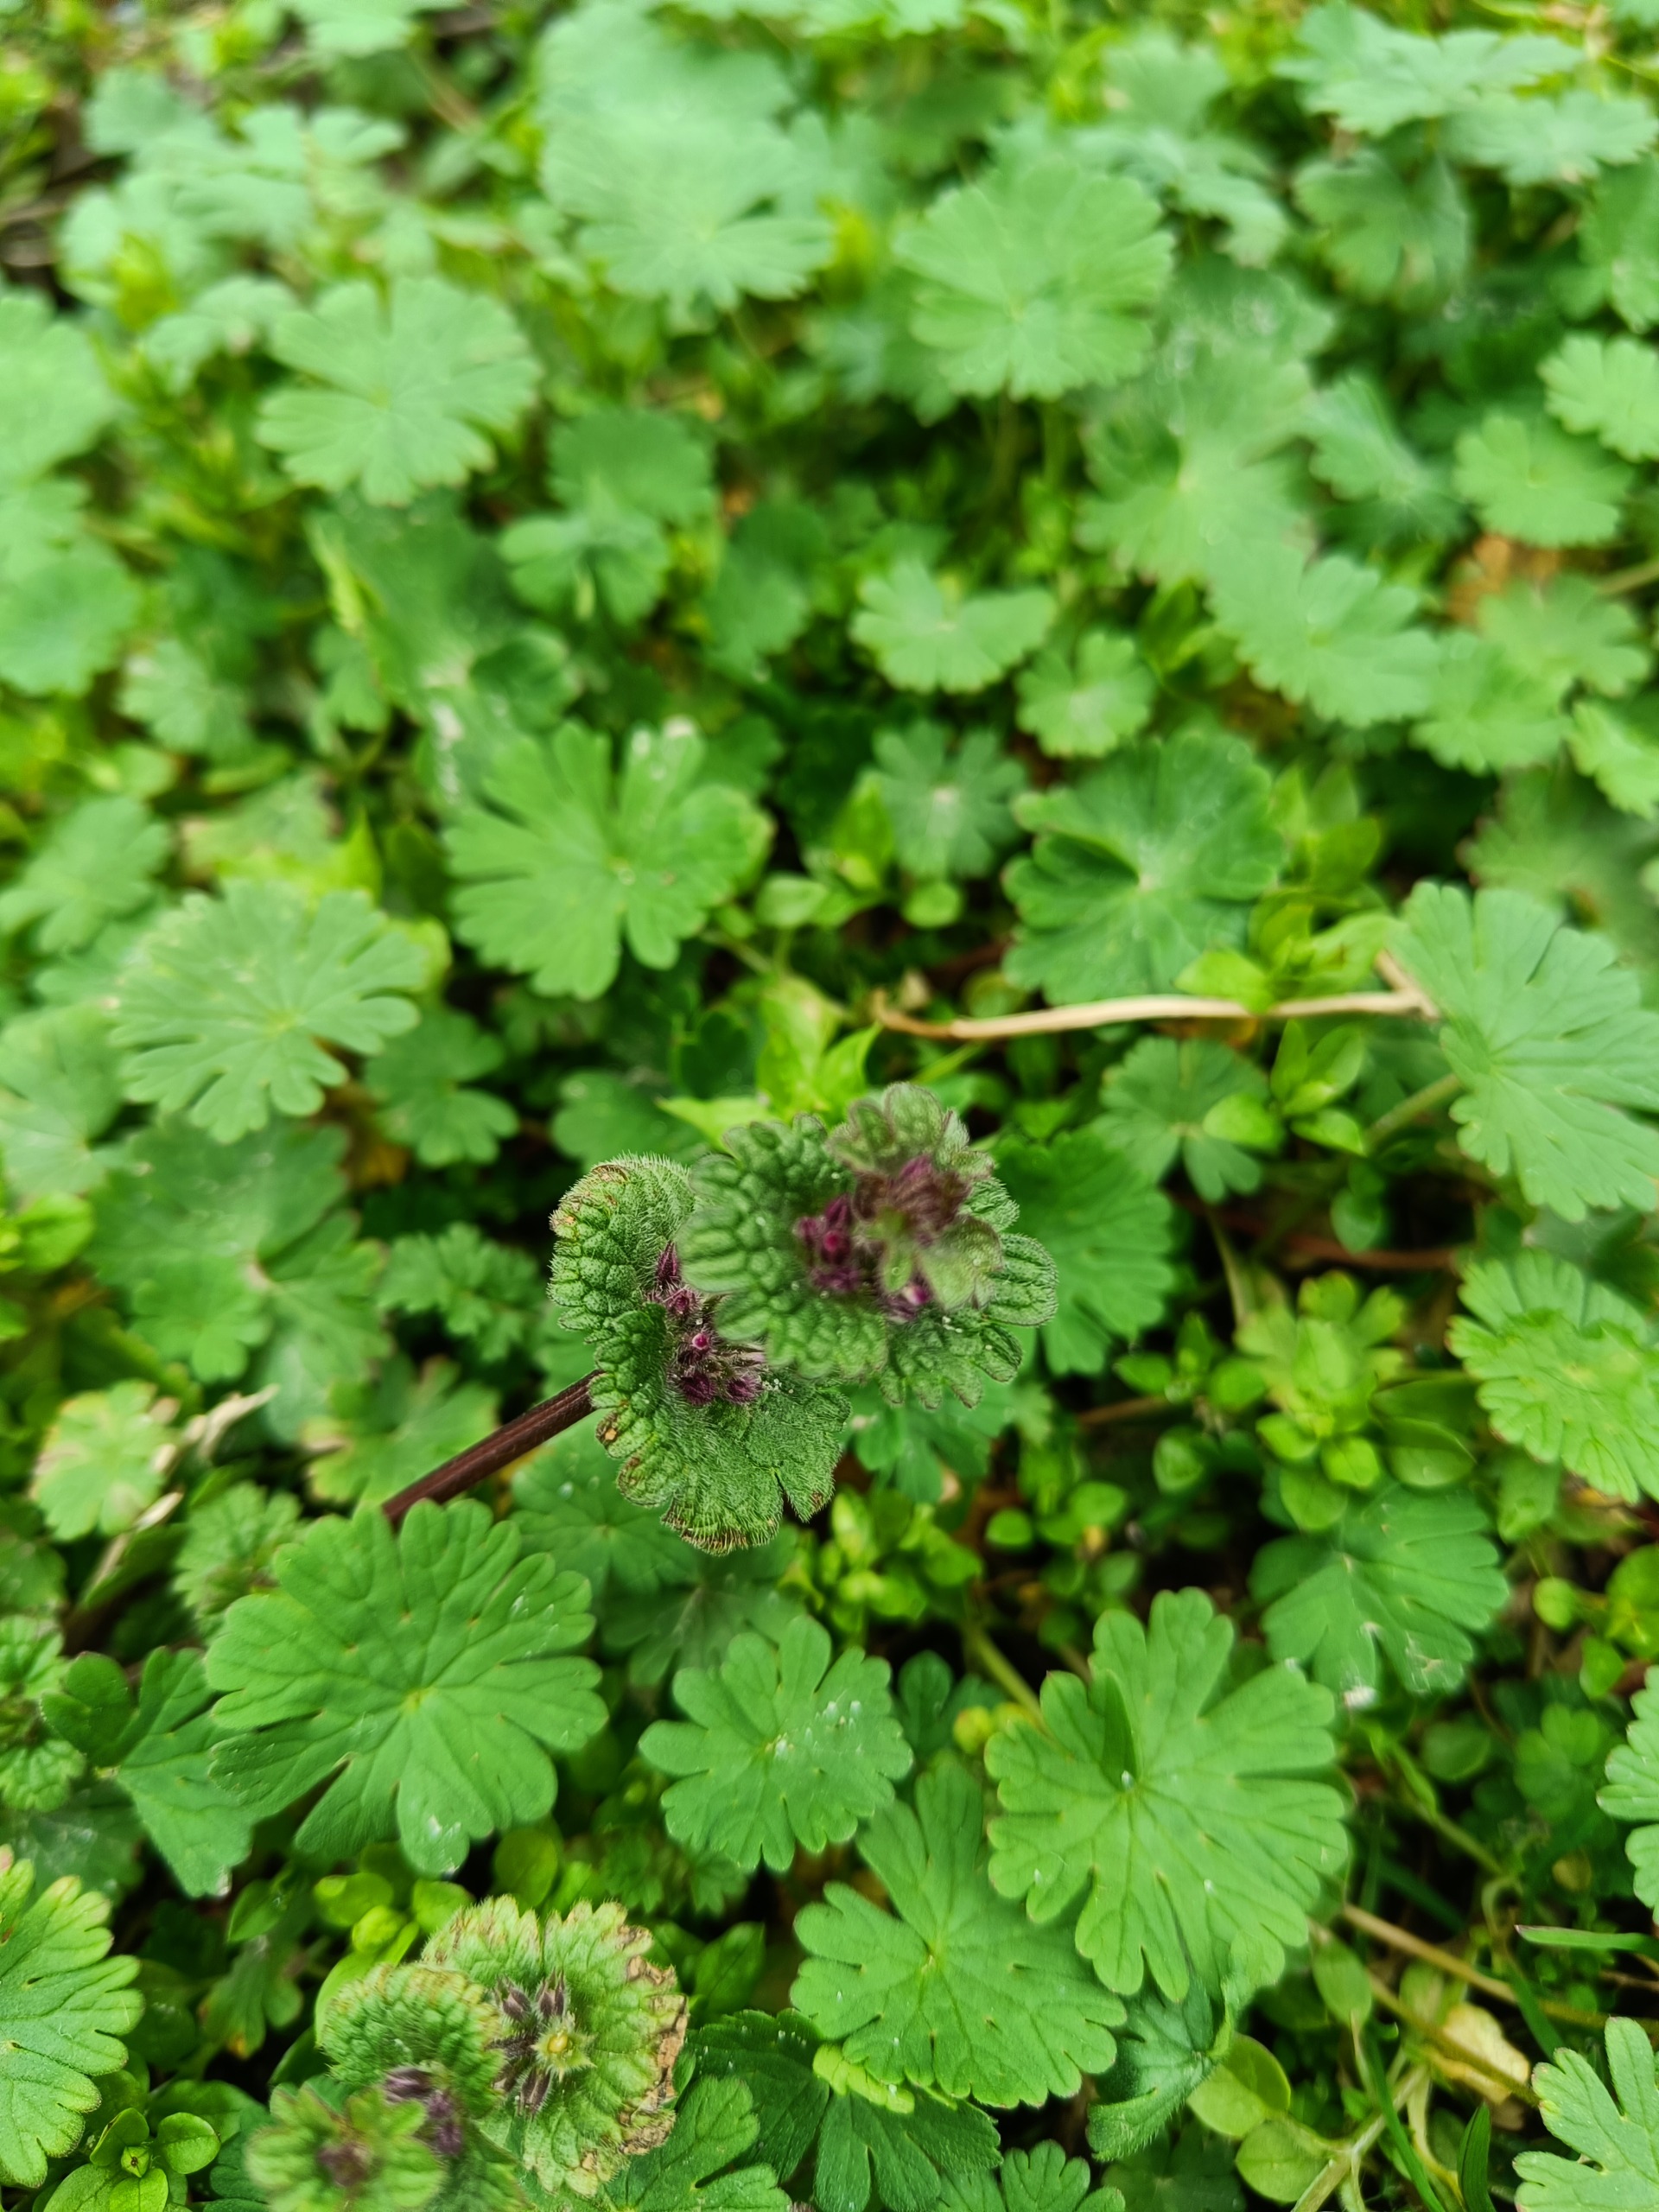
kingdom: Plantae
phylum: Tracheophyta
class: Magnoliopsida
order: Lamiales
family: Lamiaceae
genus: Lamium
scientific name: Lamium amplexicaule
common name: Liden tvetand
